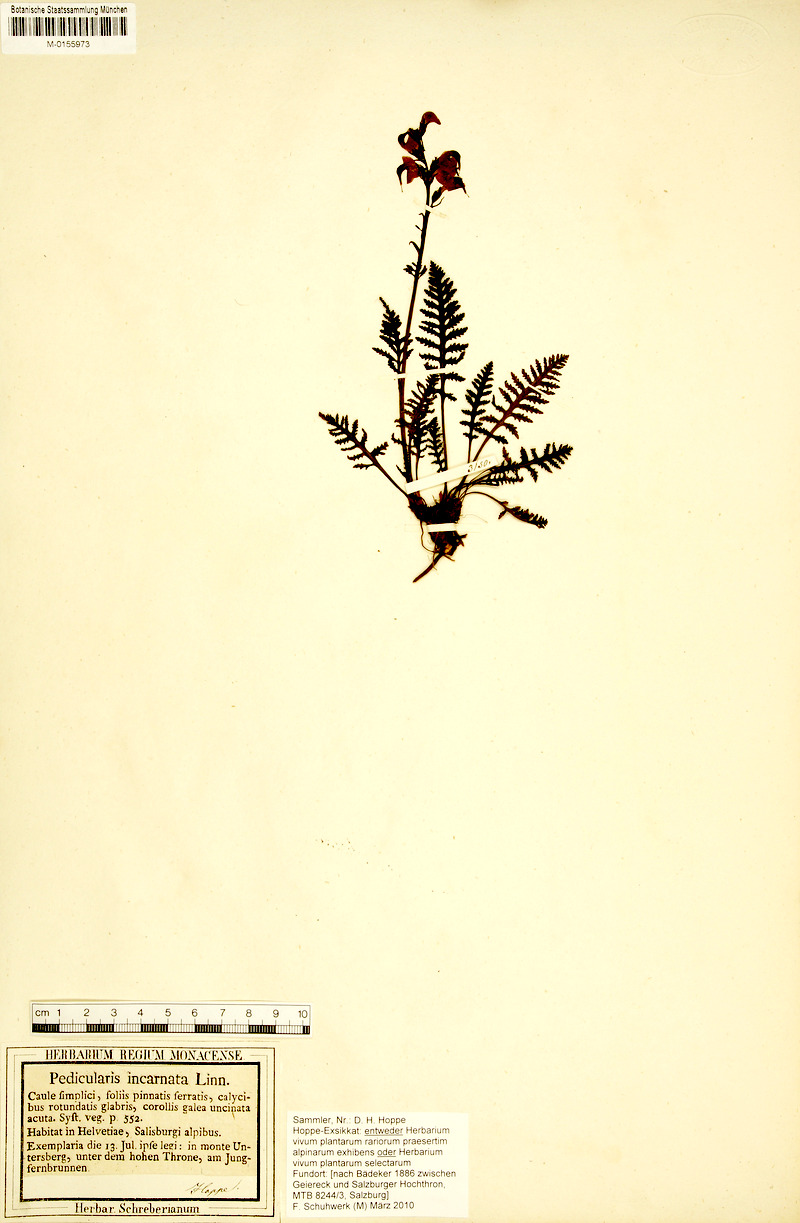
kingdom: Plantae
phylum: Tracheophyta
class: Magnoliopsida
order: Lamiales
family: Orobanchaceae
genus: Pedicularis
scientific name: Pedicularis rostratospicata
